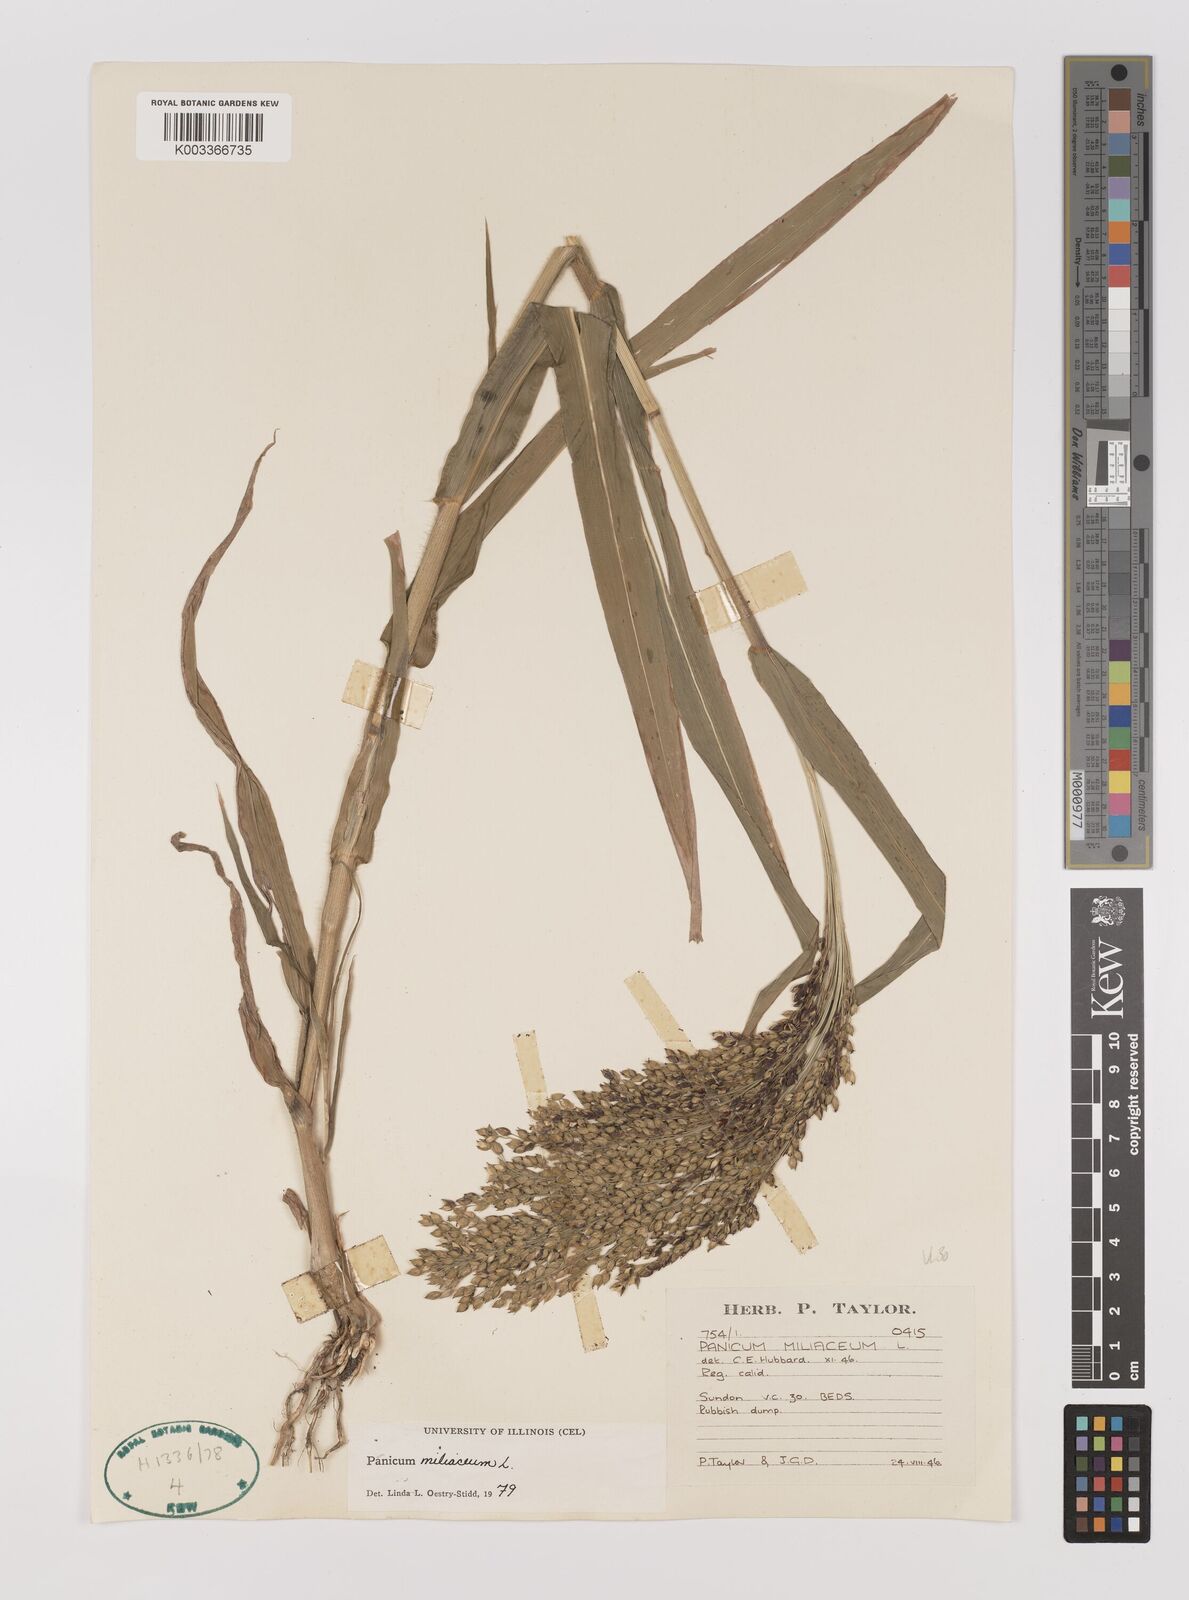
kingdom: Plantae
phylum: Tracheophyta
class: Liliopsida
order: Poales
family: Poaceae
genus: Panicum
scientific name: Panicum miliaceum
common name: Common millet
